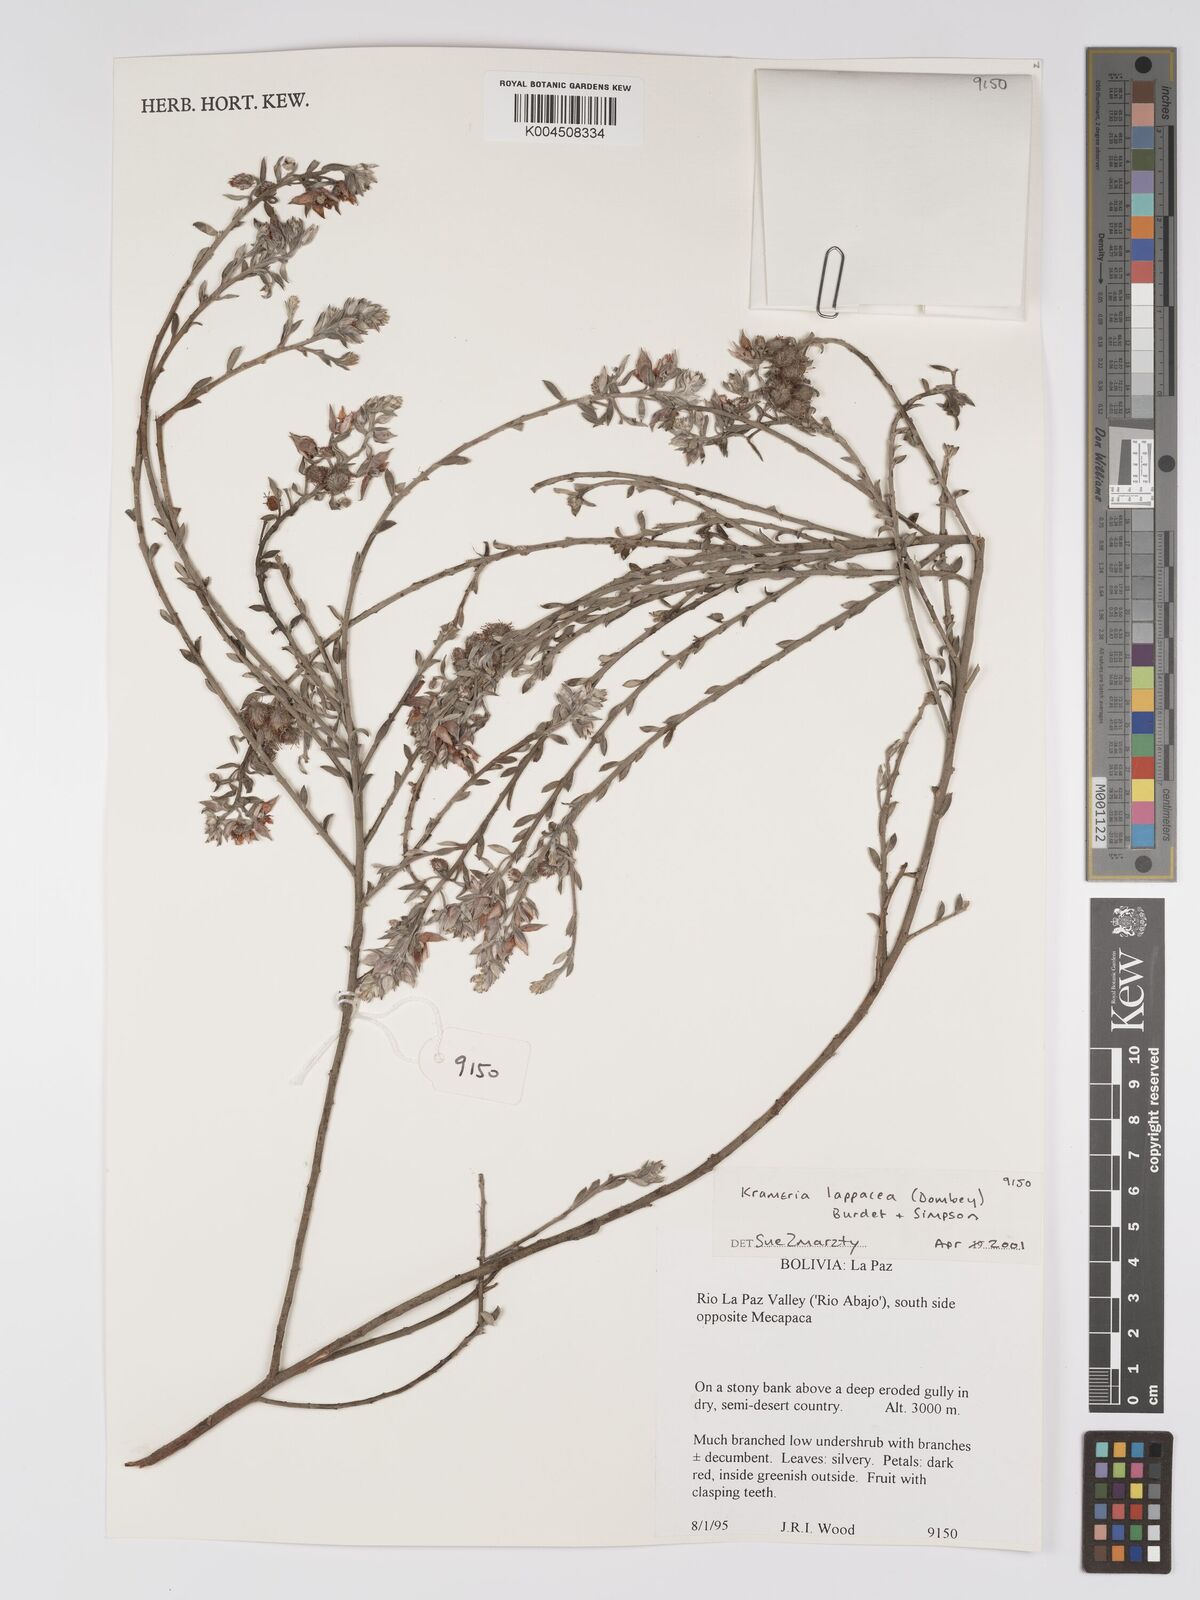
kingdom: Plantae
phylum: Tracheophyta
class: Magnoliopsida
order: Zygophyllales
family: Krameriaceae
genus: Krameria
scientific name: Krameria lappacea
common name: Rhatany
